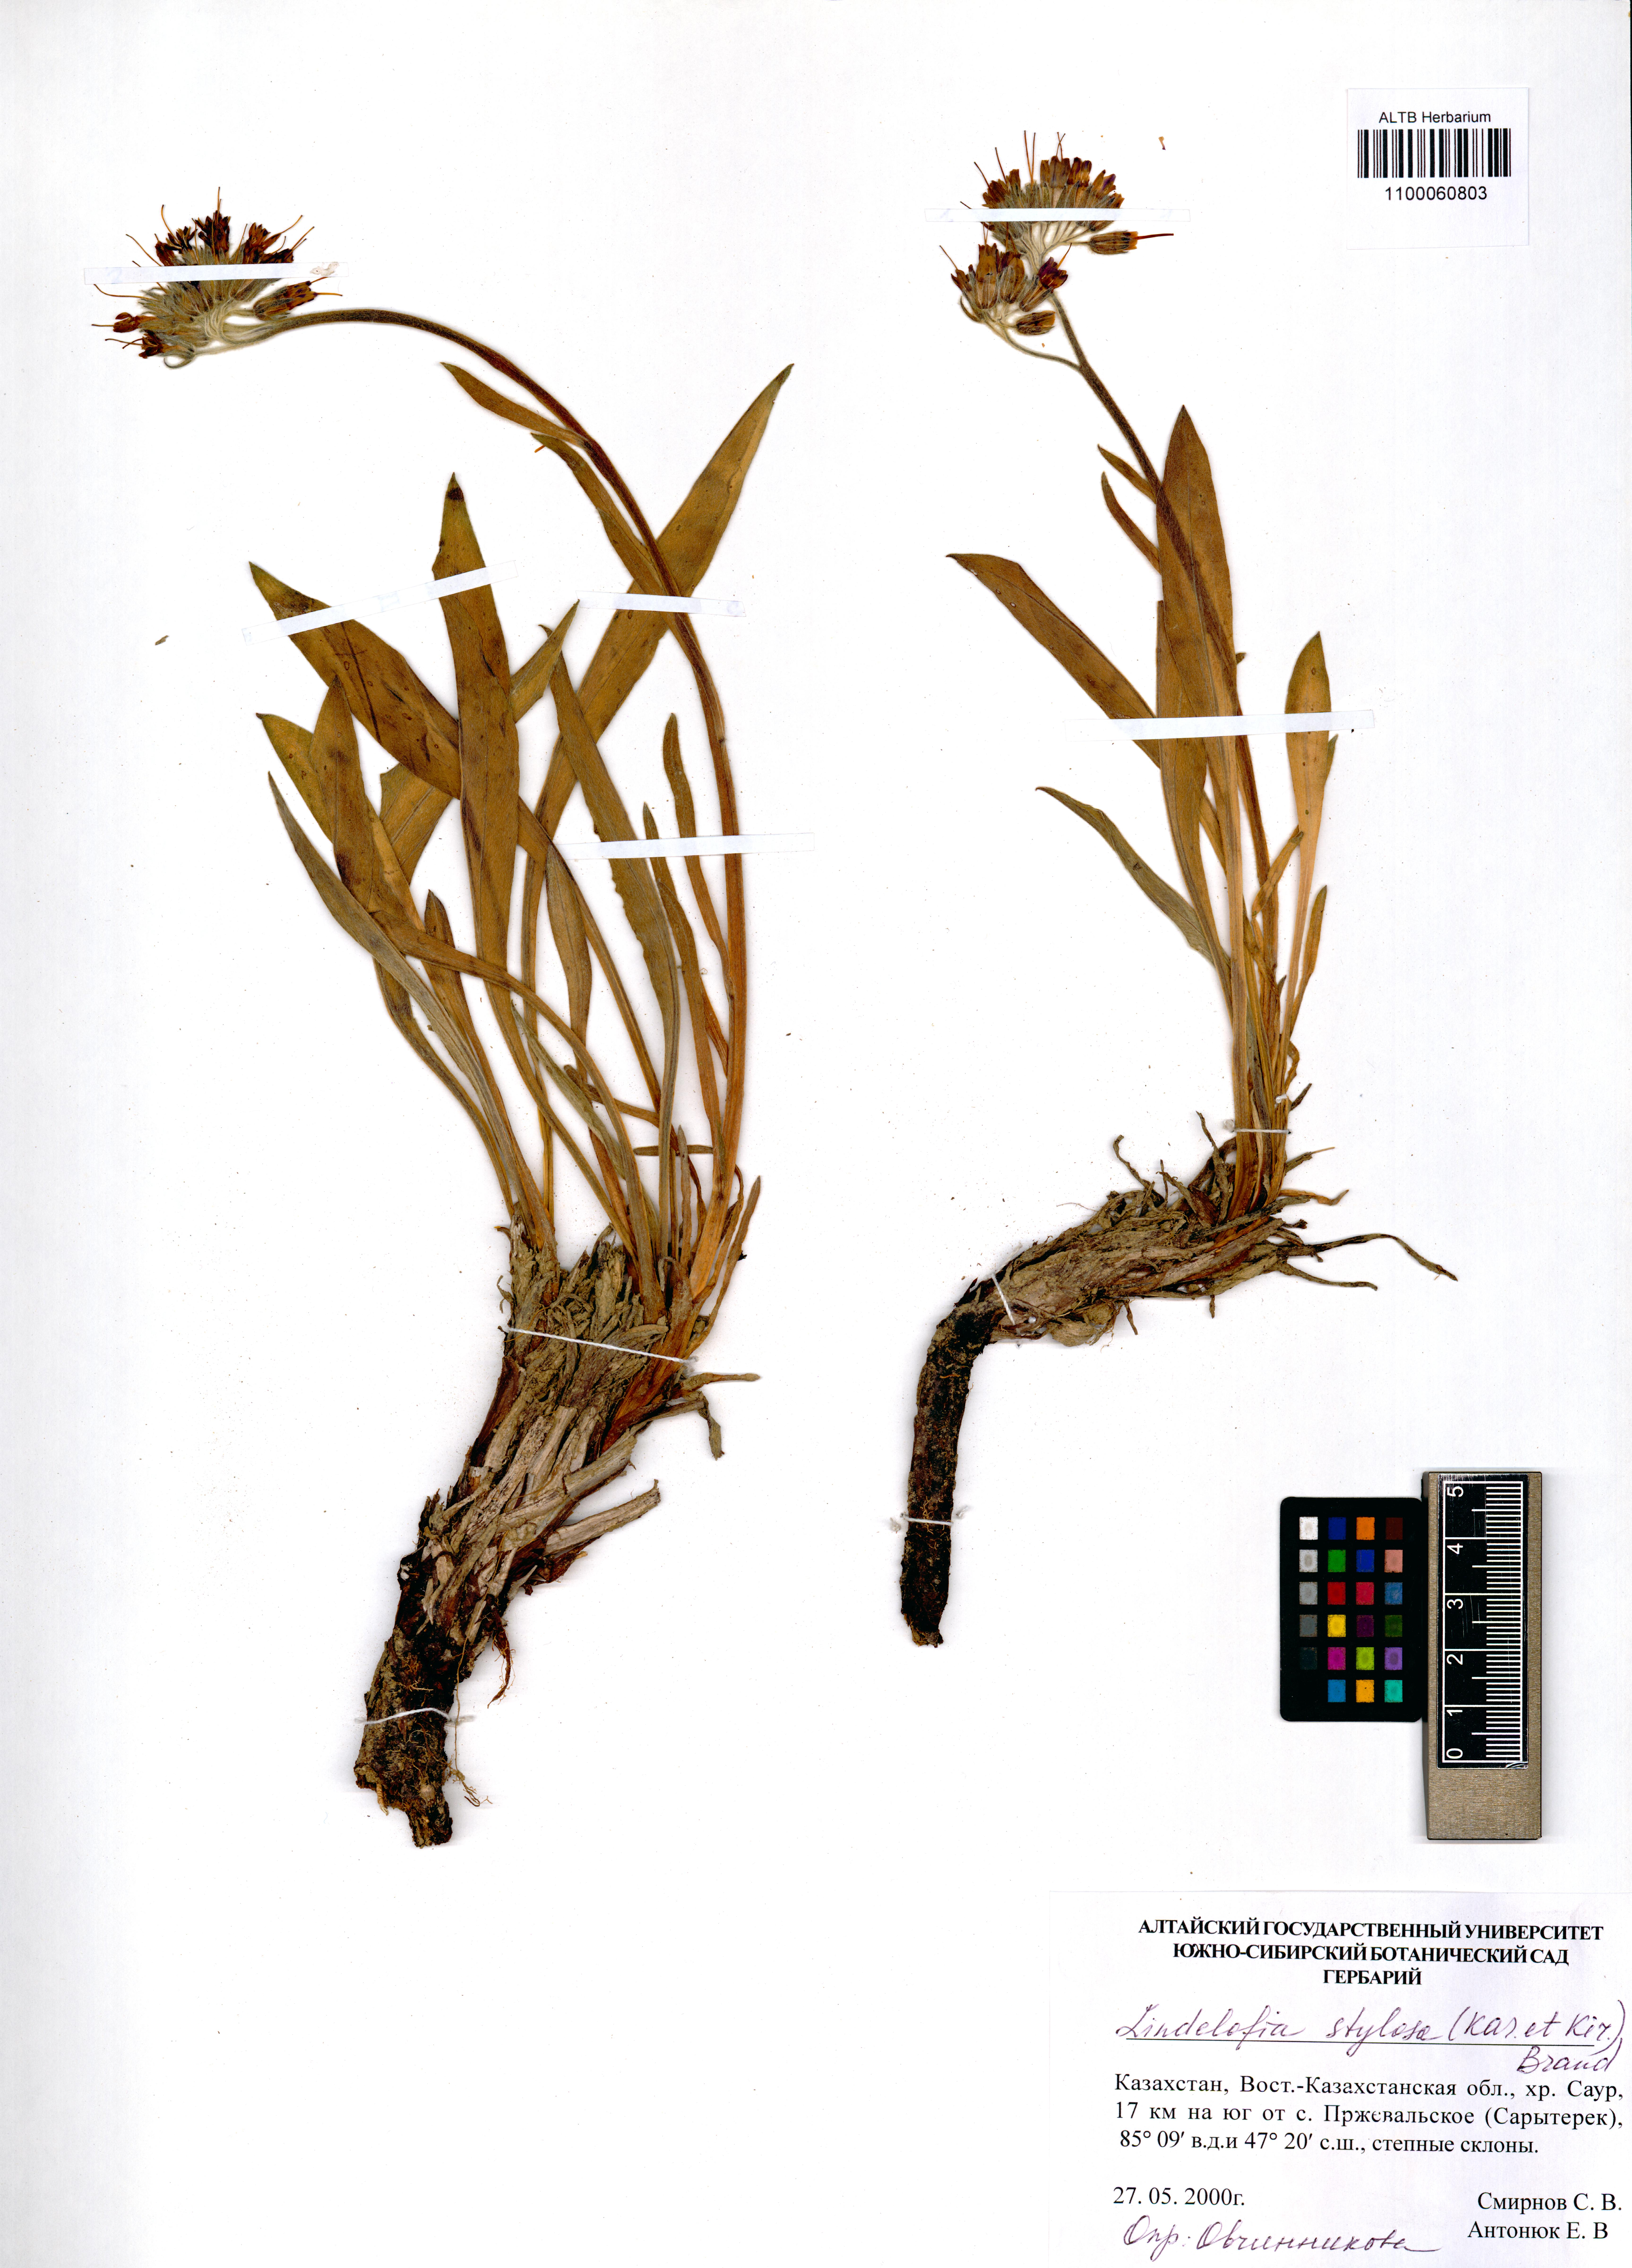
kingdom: Plantae
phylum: Tracheophyta
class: Magnoliopsida
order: Boraginales
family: Boraginaceae
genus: Lindelofia
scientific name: Lindelofia stylosa
